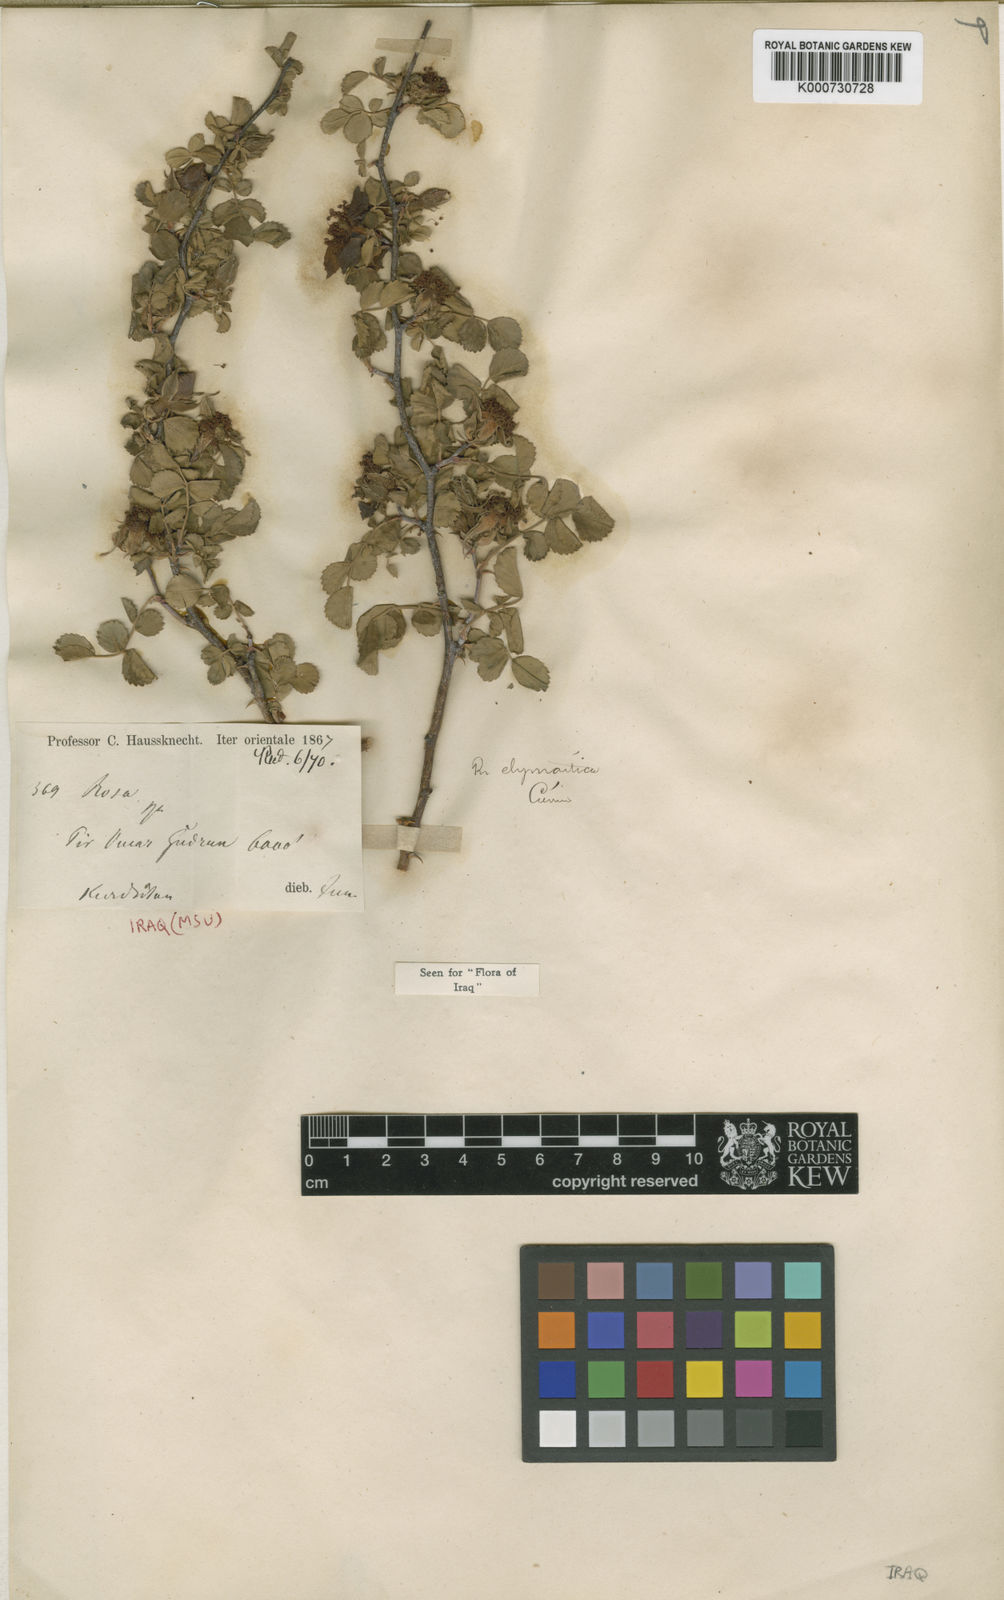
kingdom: Plantae
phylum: Tracheophyta
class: Magnoliopsida
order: Rosales
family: Rosaceae
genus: Rosa
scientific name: Rosa elymaitica
